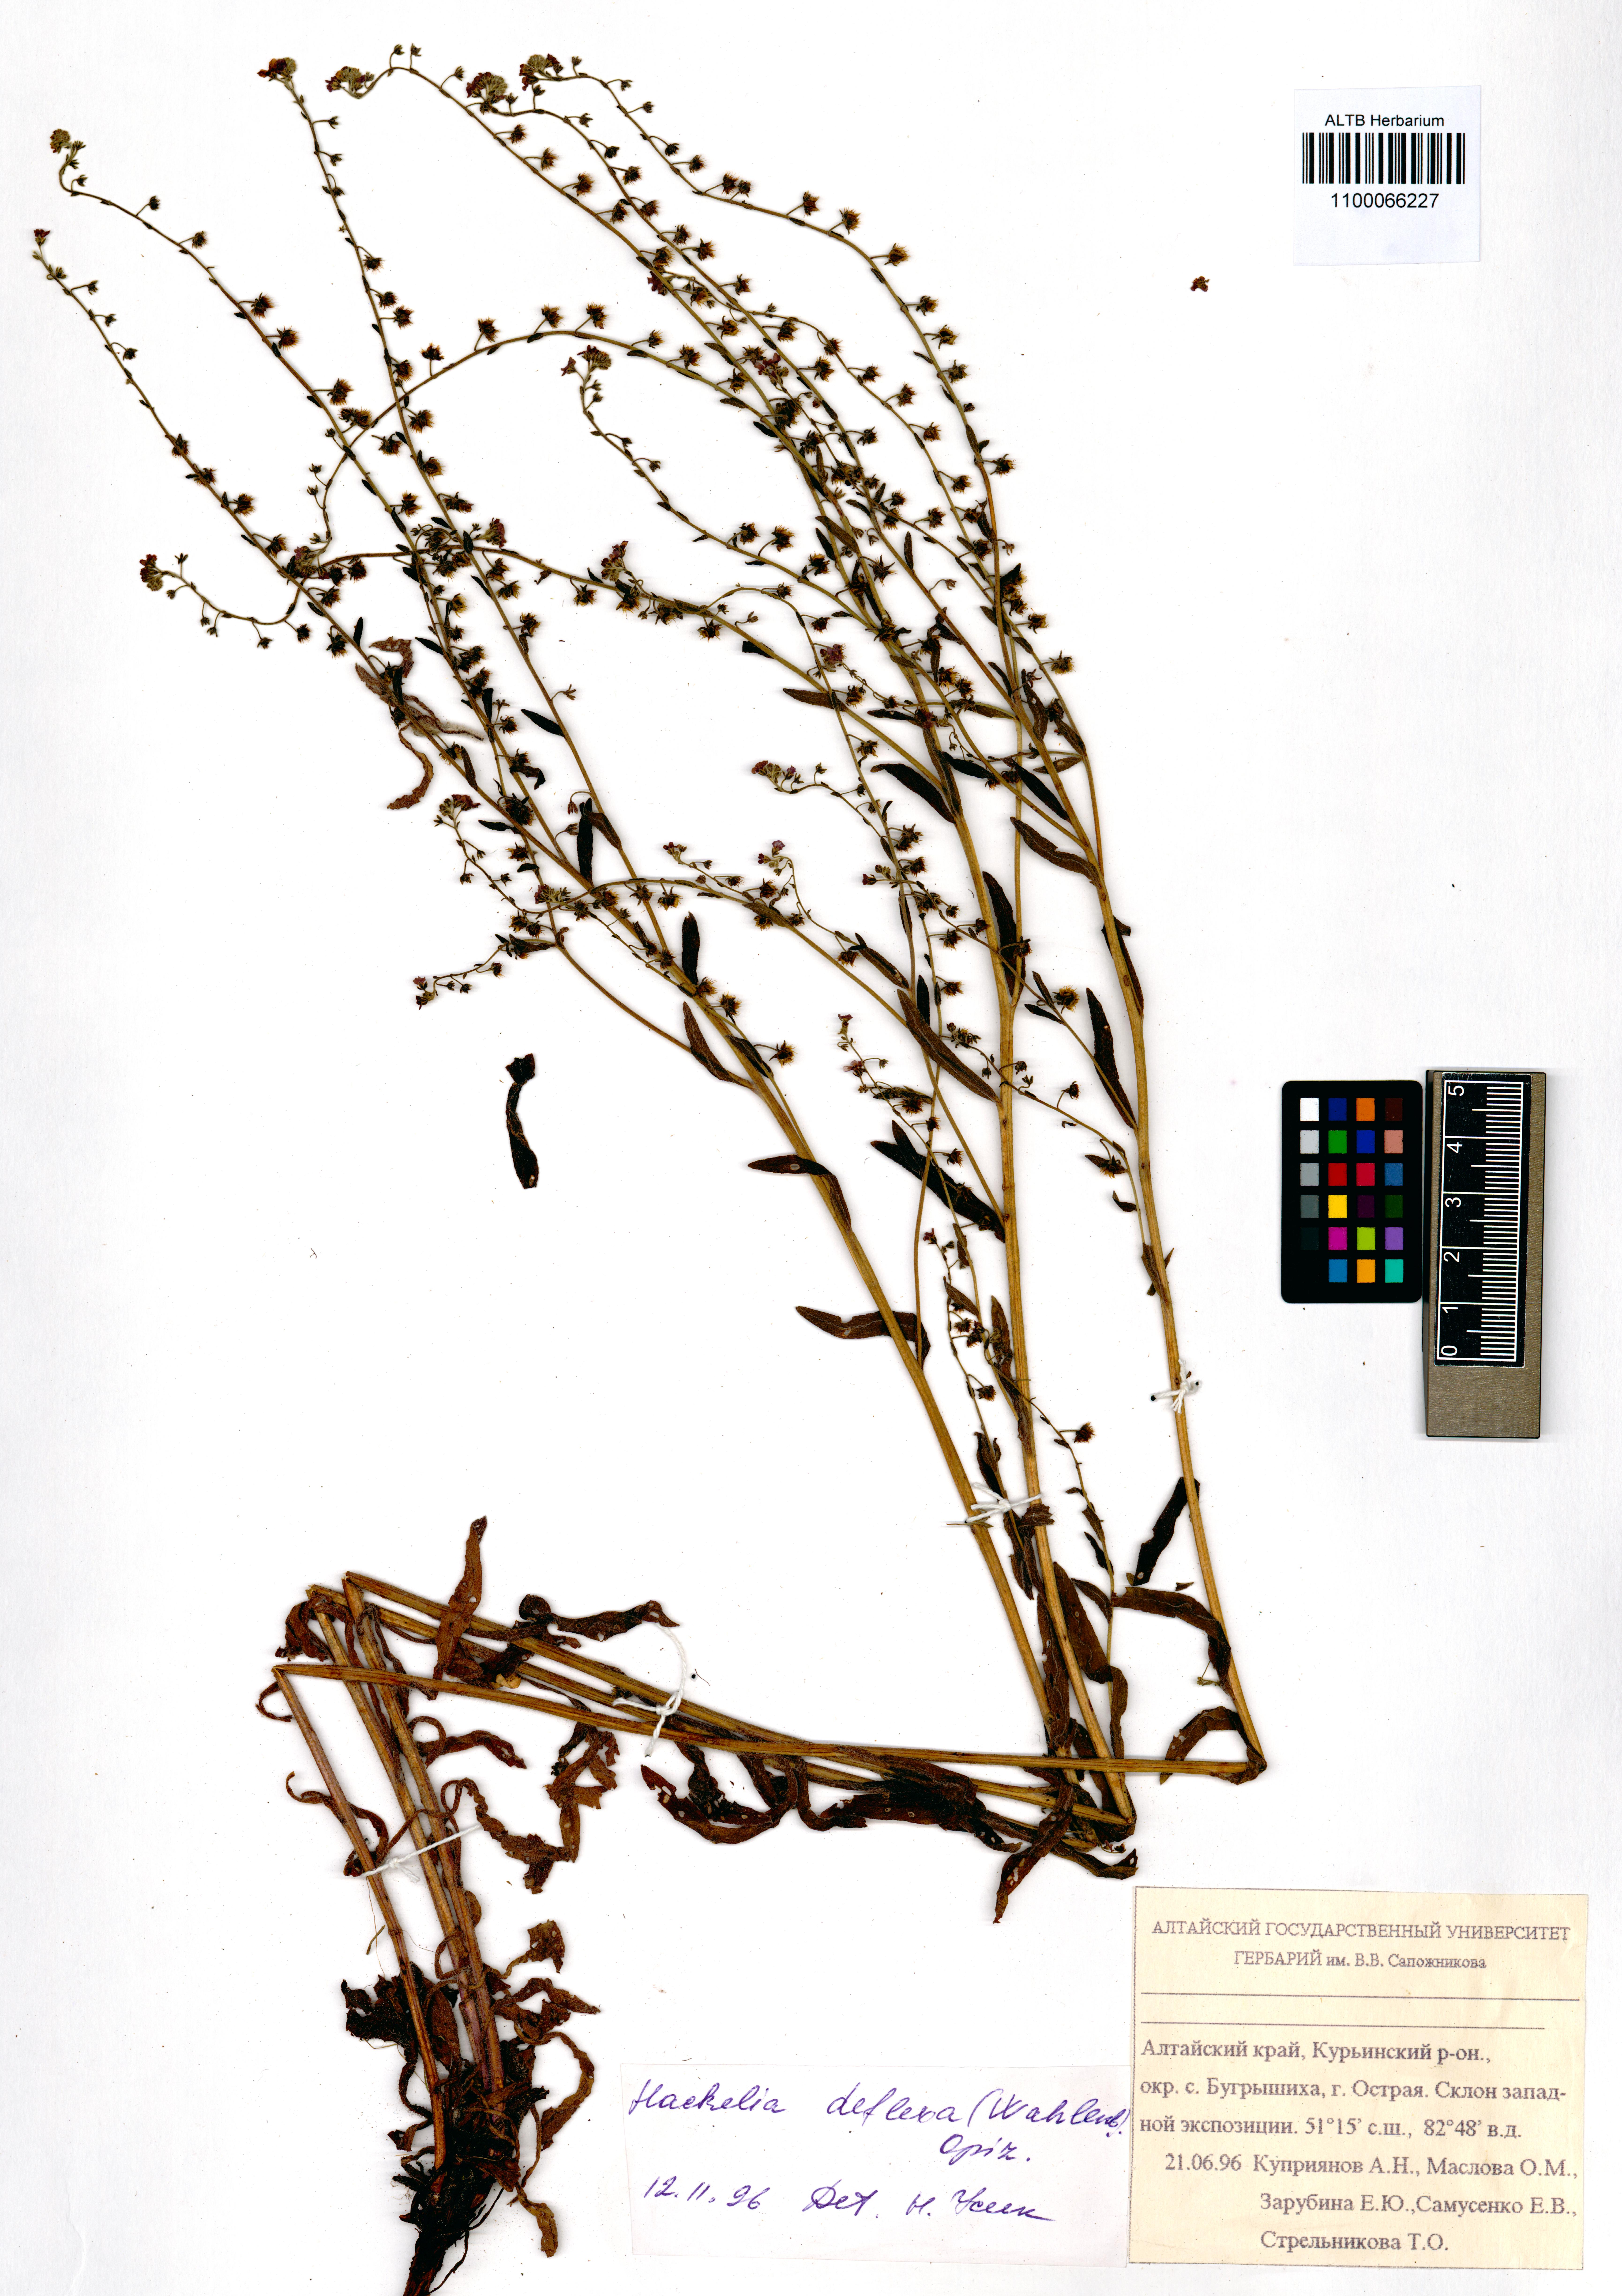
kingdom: Plantae
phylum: Tracheophyta
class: Magnoliopsida
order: Boraginales
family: Boraginaceae
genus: Hackelia
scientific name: Hackelia deflexa
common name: Nodding stickseed
